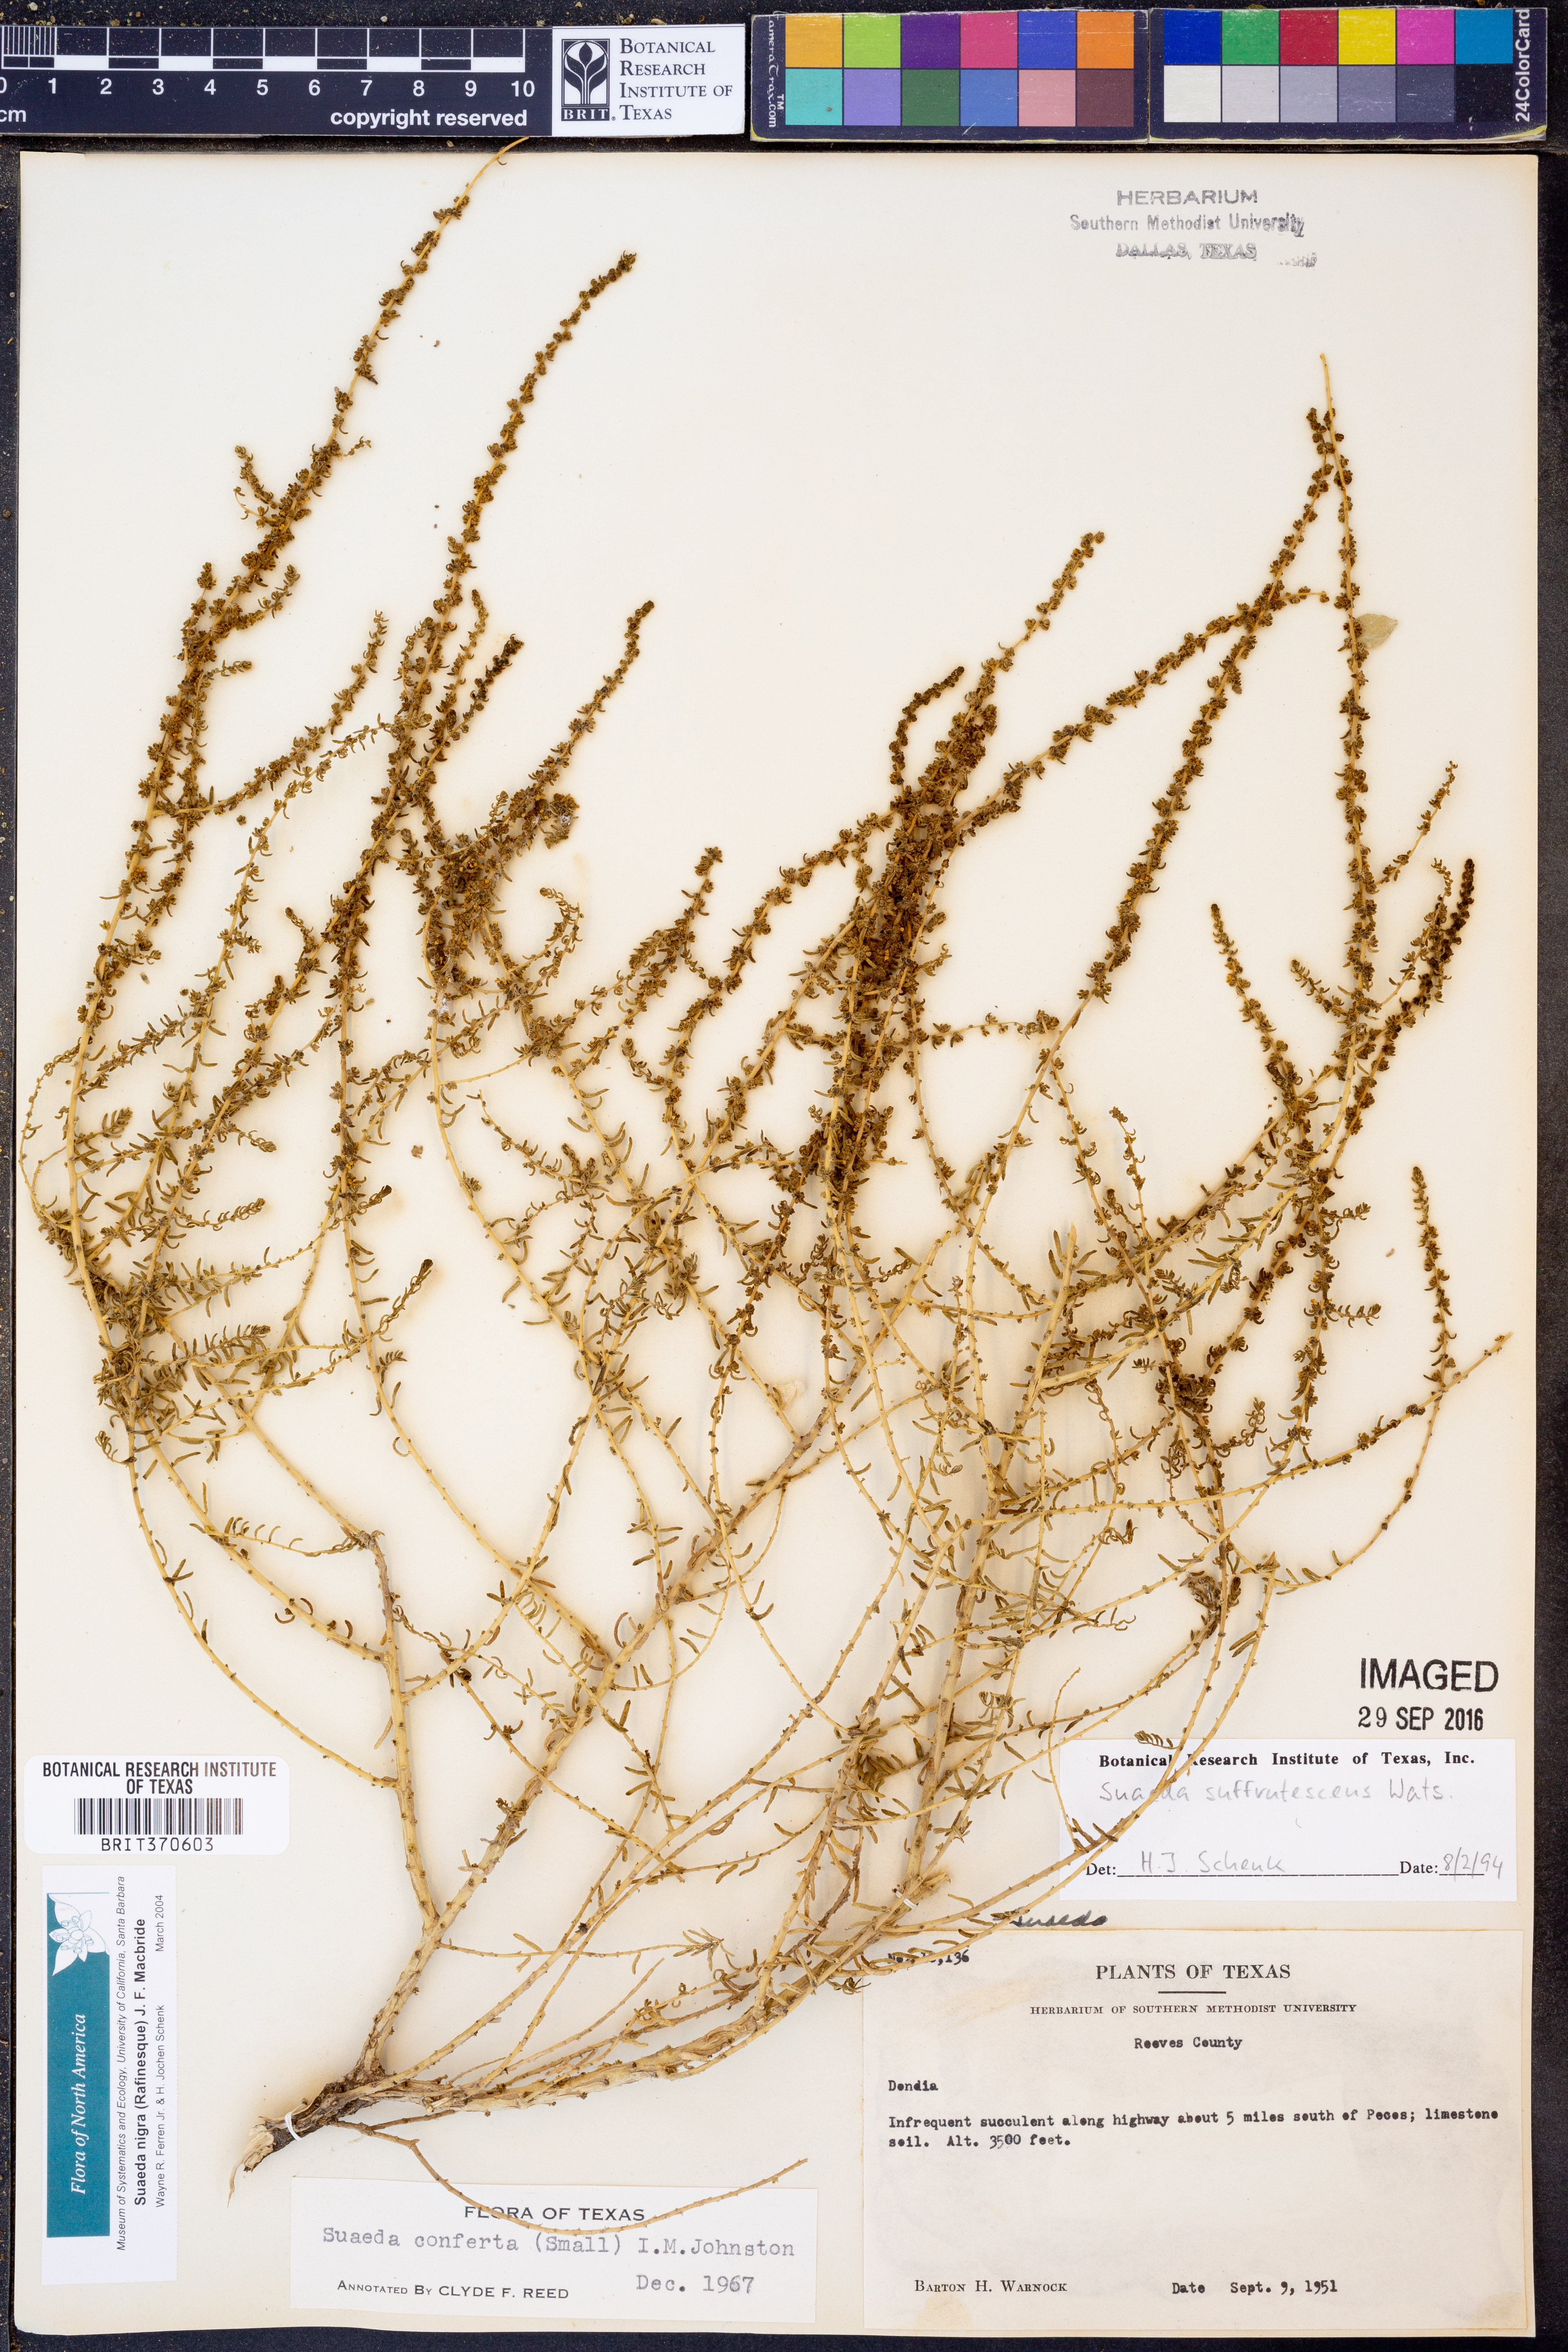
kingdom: Plantae
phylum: Tracheophyta
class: Magnoliopsida
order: Caryophyllales
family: Amaranthaceae
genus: Suaeda
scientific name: Suaeda nigra
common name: Bush seepweed
